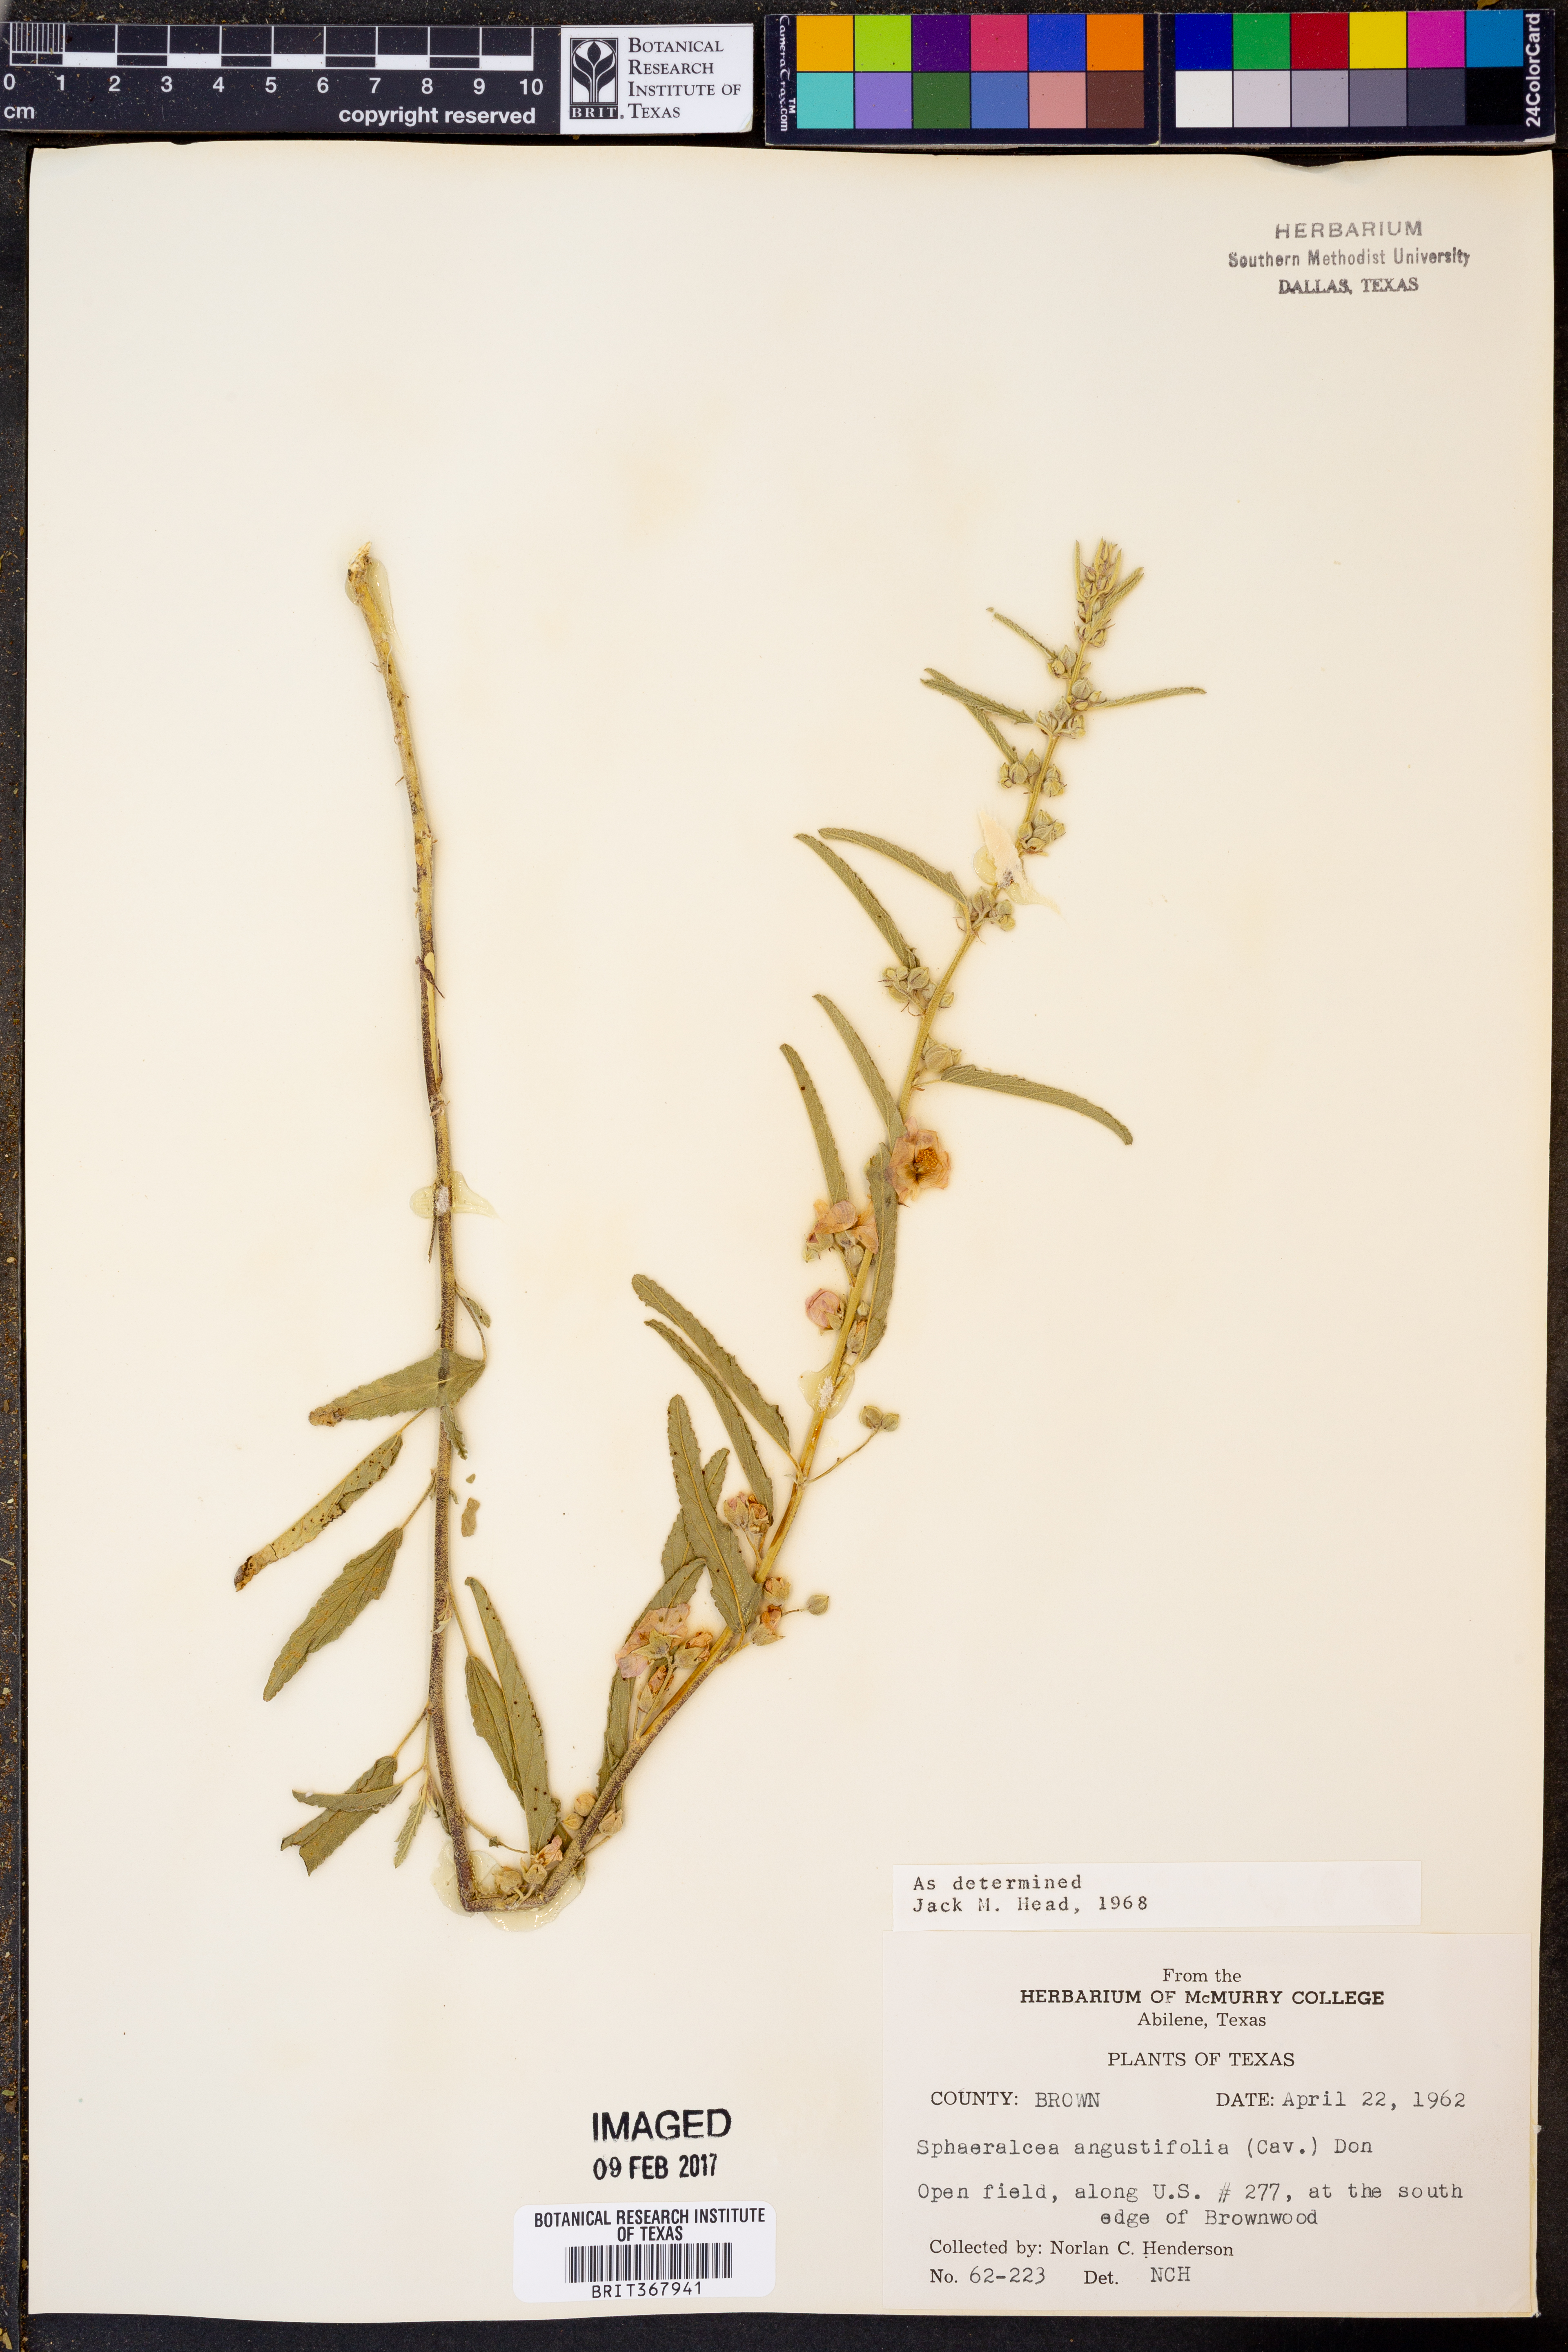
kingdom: Plantae
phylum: Tracheophyta
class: Magnoliopsida
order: Malvales
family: Malvaceae
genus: Sphaeralcea
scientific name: Sphaeralcea angustifolia
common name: Copper globe-mallow
